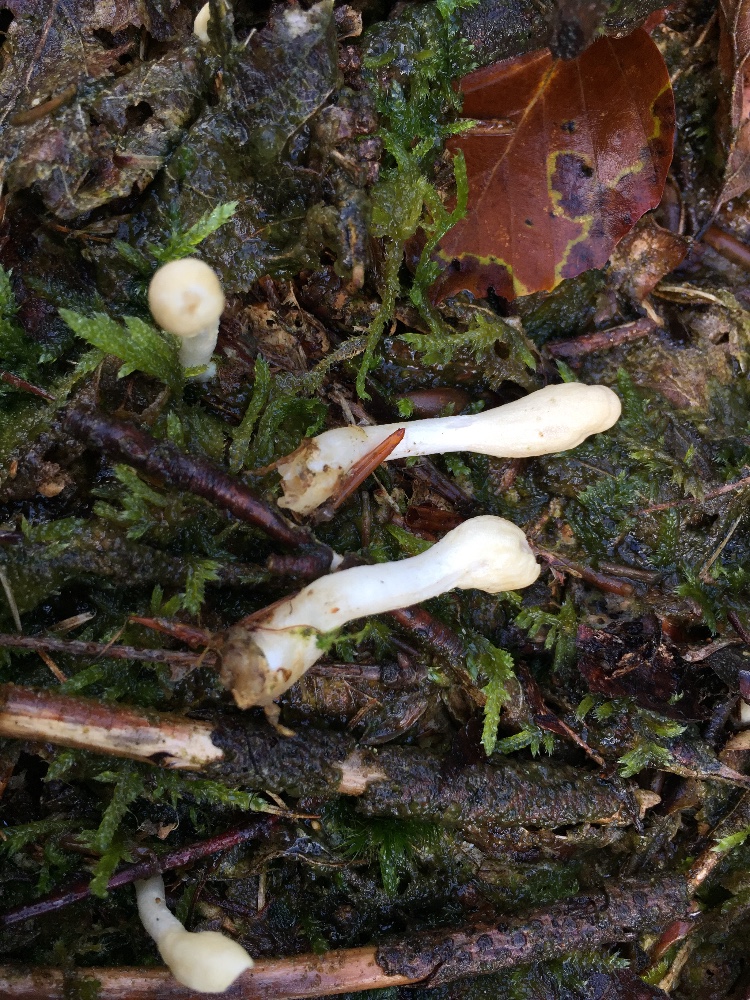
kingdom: Fungi
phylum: Ascomycota
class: Sordariomycetes
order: Hypocreales
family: Hypocreaceae
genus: Trichoderma
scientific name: Trichoderma leucopus
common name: lysstokket kødkerne
